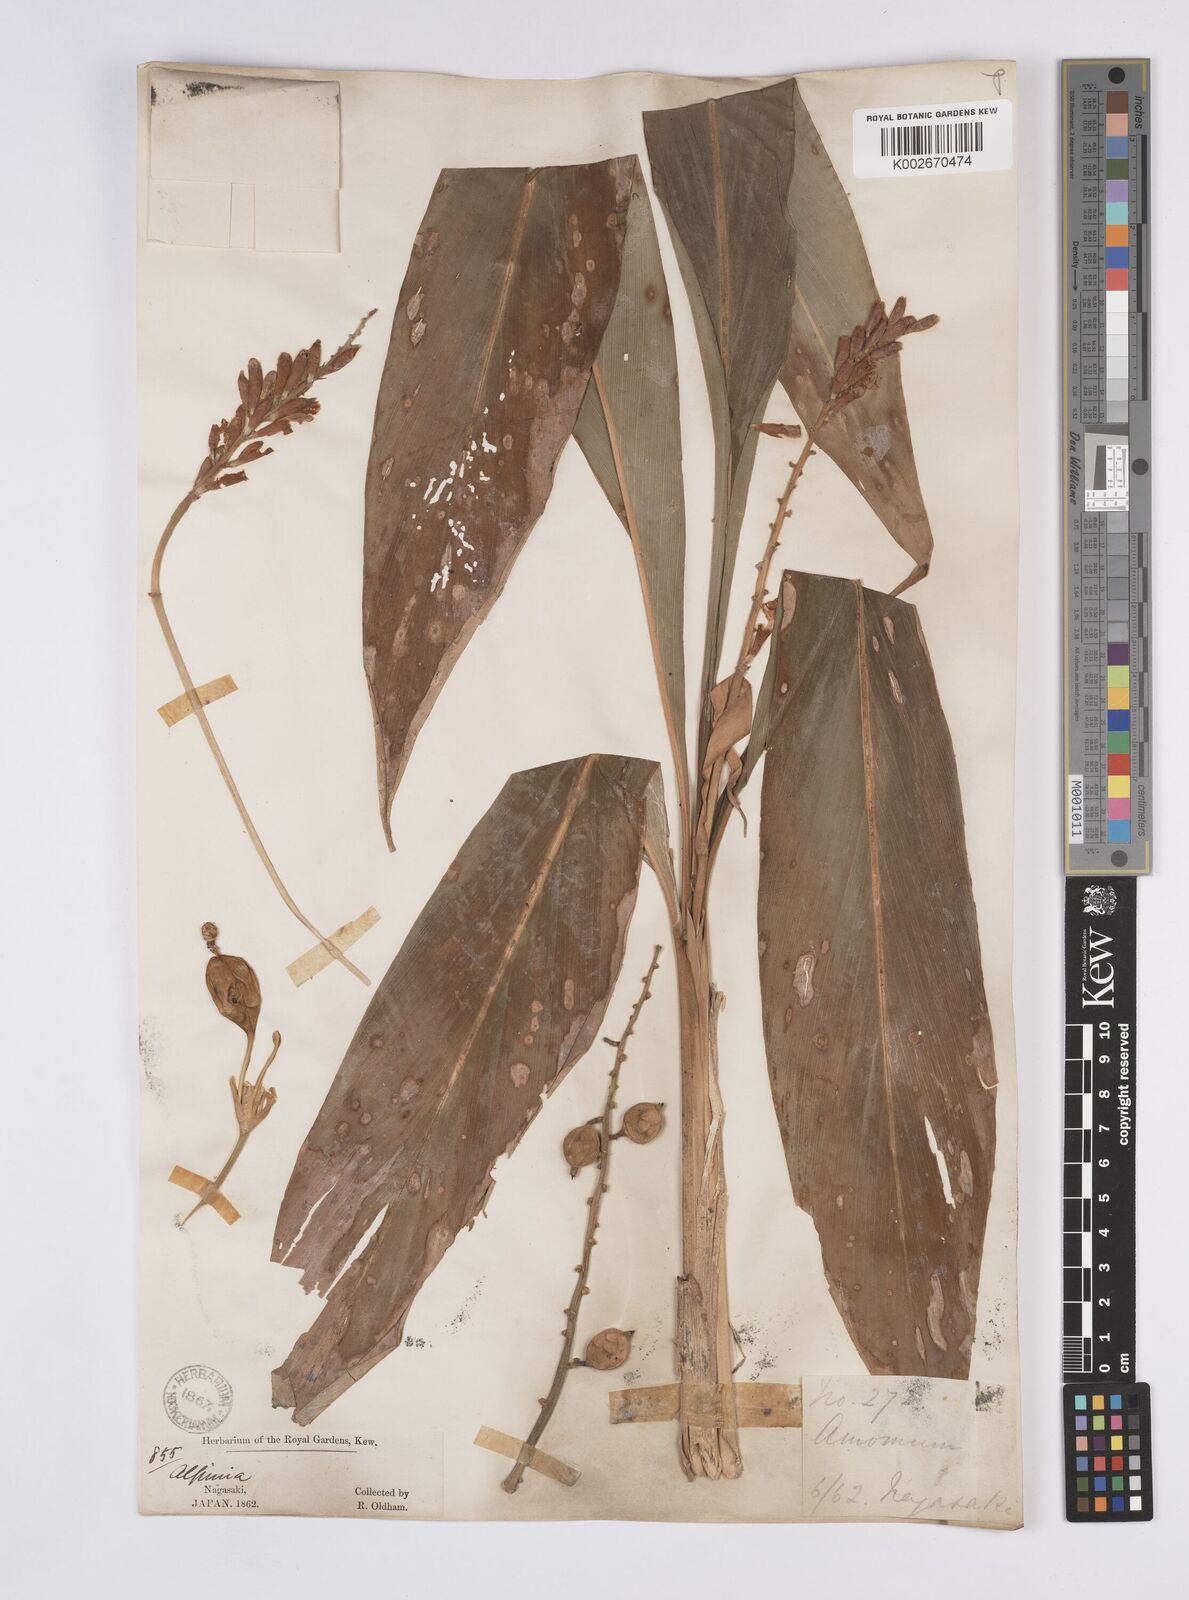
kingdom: Plantae
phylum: Tracheophyta
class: Liliopsida
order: Zingiberales
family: Zingiberaceae
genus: Alpinia
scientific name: Alpinia japonica
